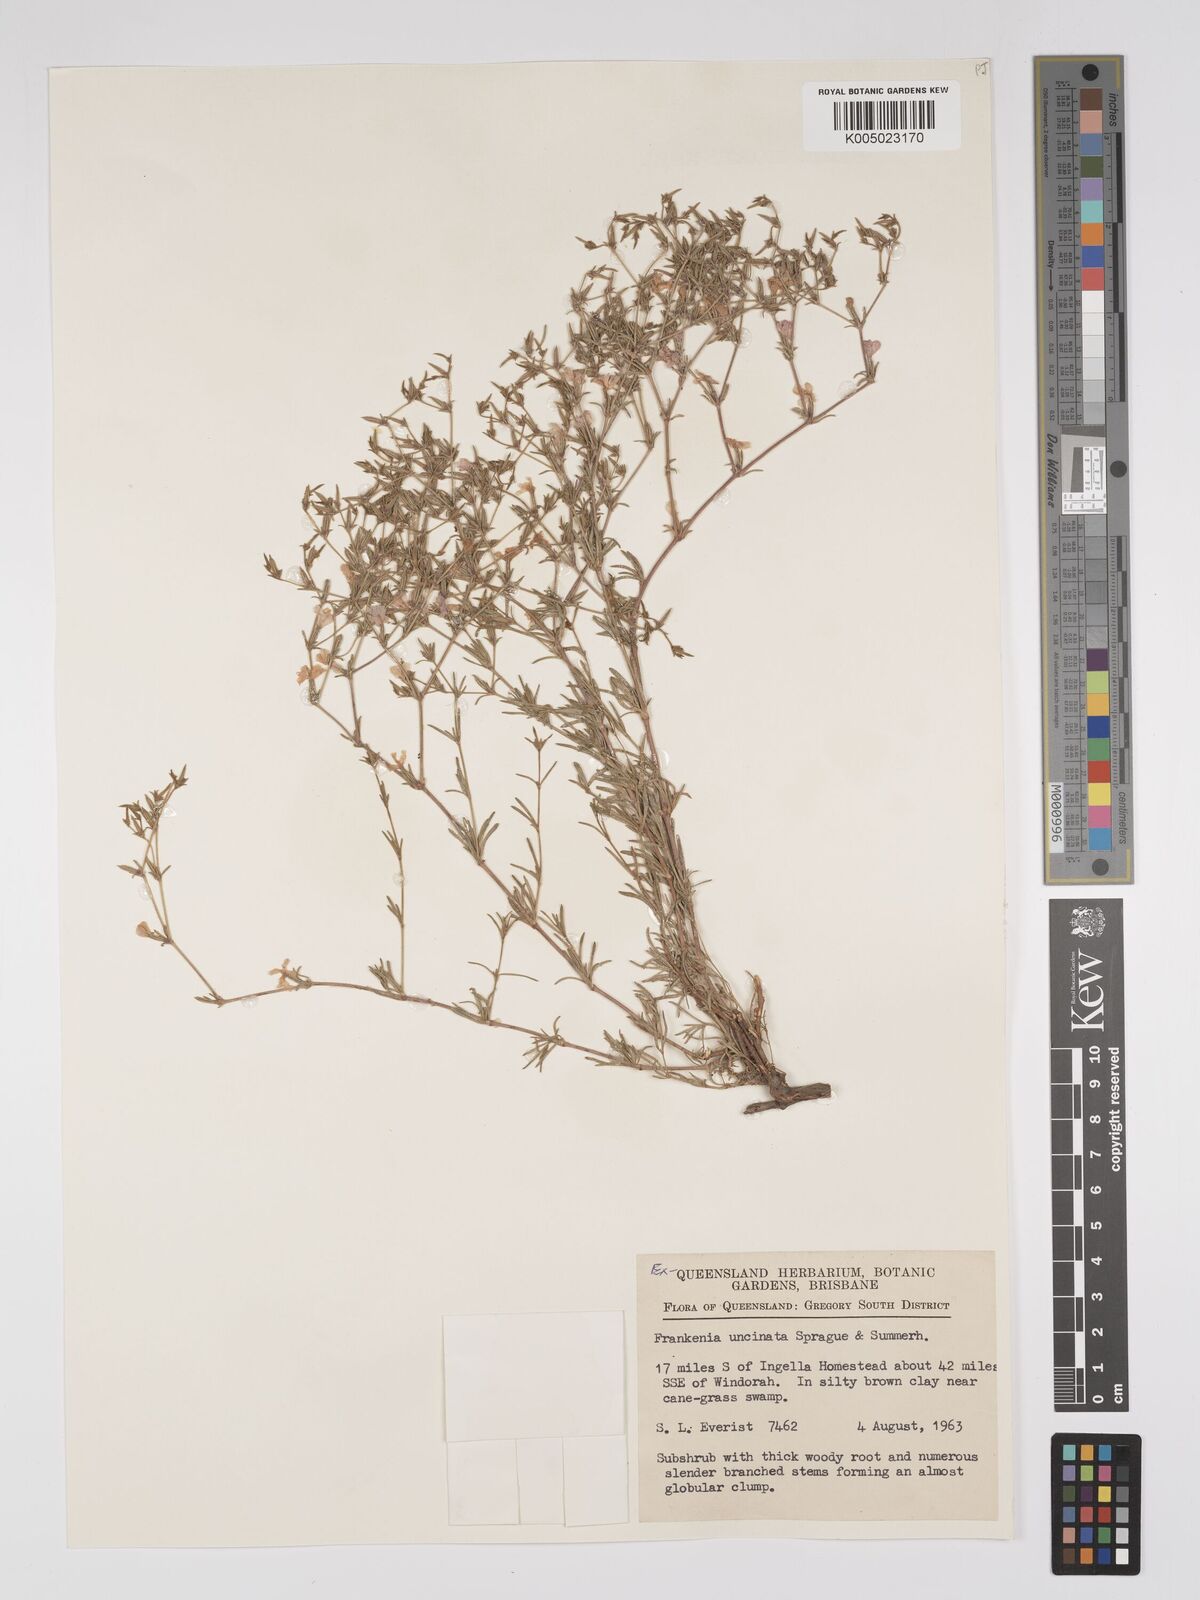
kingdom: Plantae
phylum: Tracheophyta
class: Magnoliopsida
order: Caryophyllales
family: Frankeniaceae
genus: Frankenia
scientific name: Frankenia uncinata
